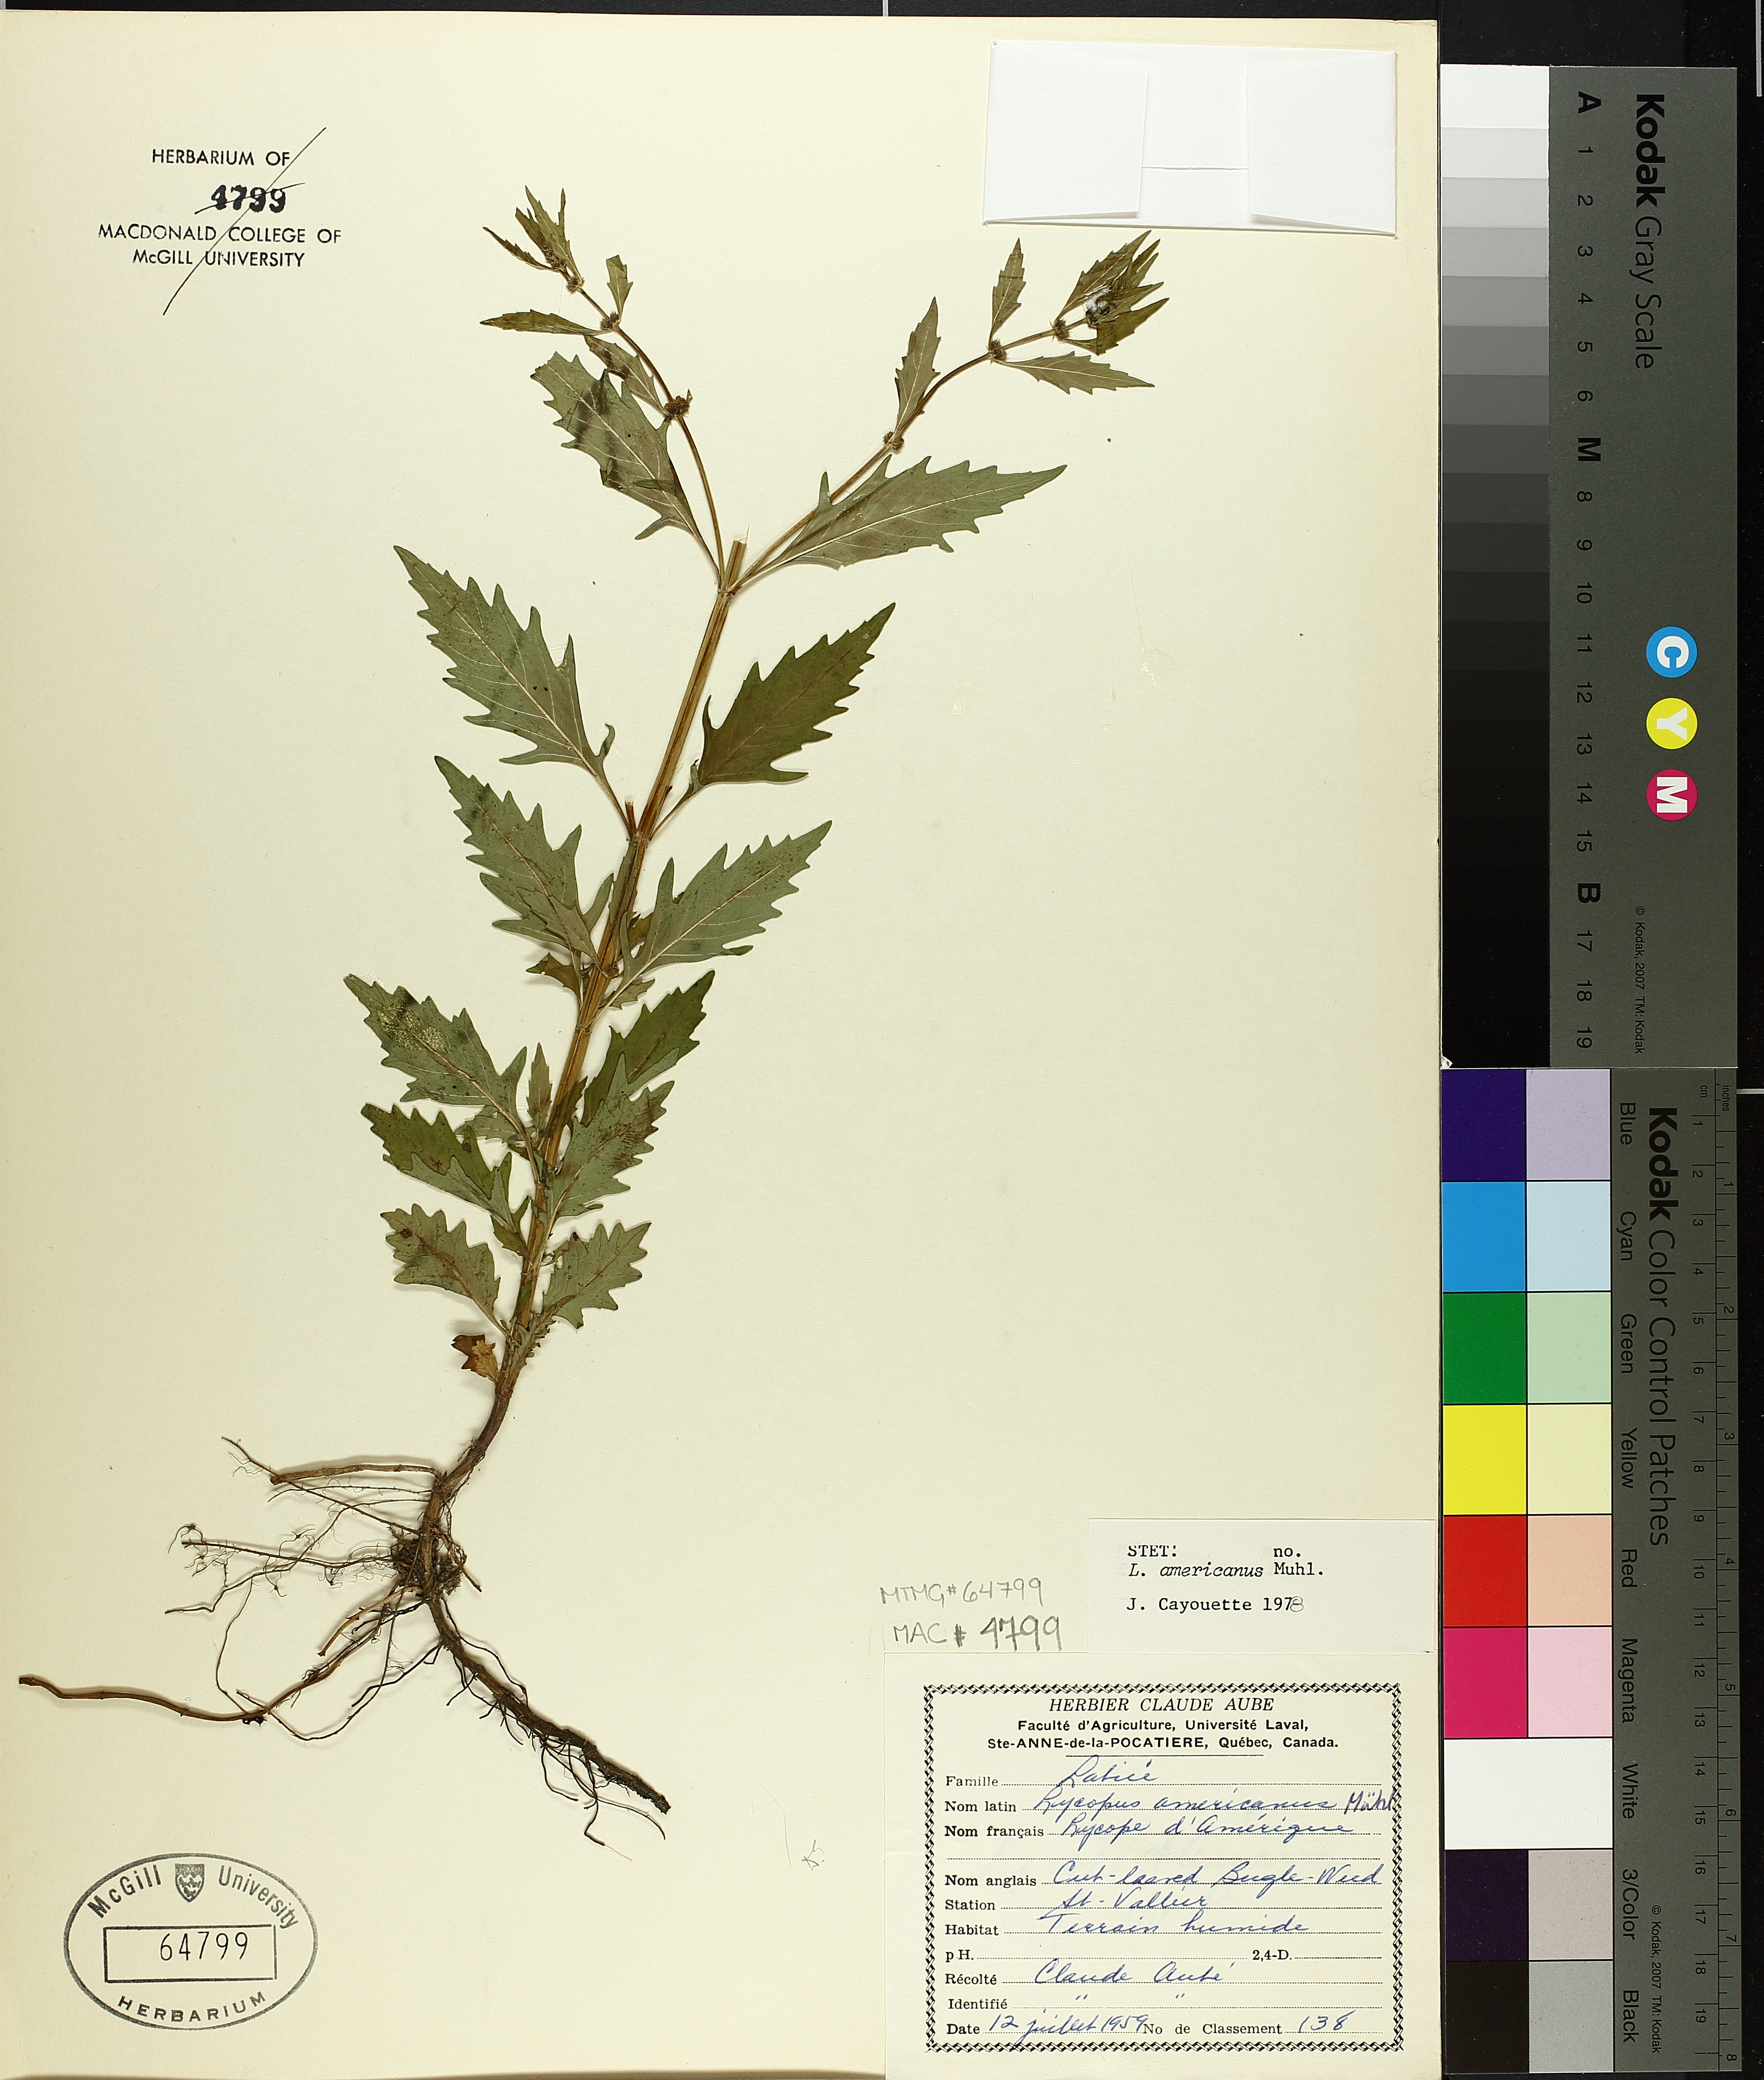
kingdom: Plantae
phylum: Tracheophyta
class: Magnoliopsida
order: Lamiales
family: Lamiaceae
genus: Lycopus
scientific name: Lycopus americanus
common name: American bugleweed
